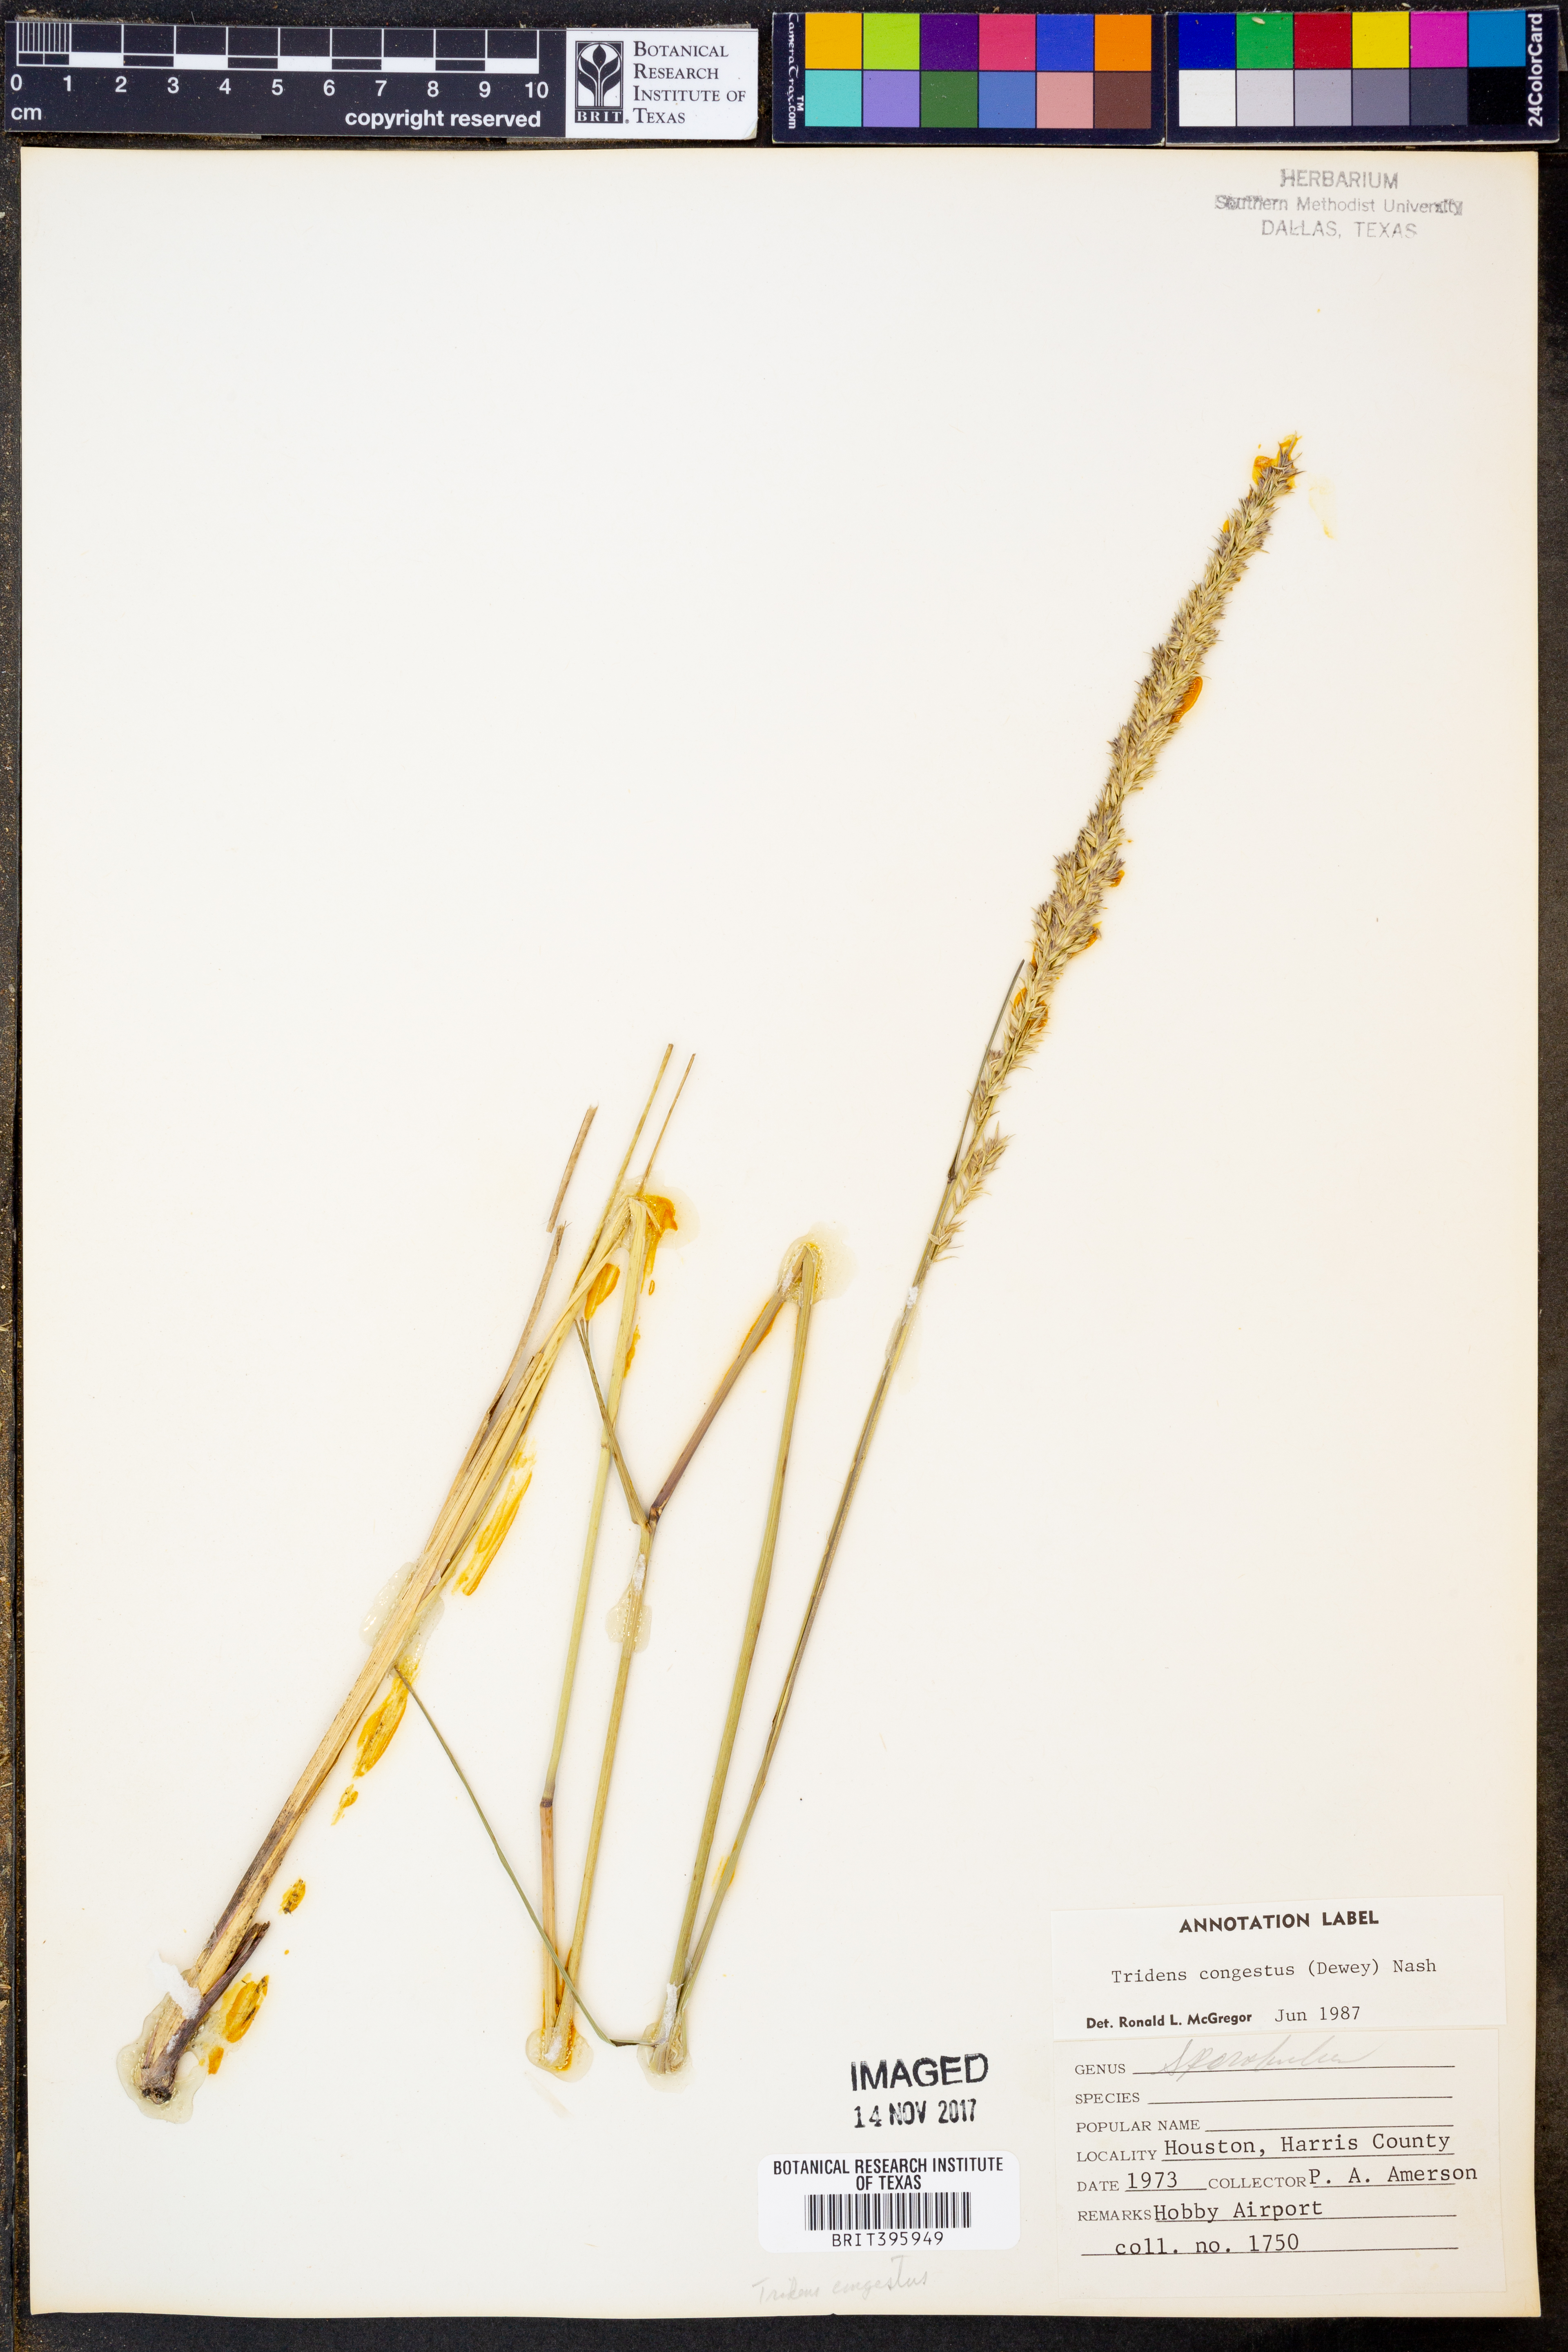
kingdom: Plantae
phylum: Tracheophyta
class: Liliopsida
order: Poales
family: Poaceae
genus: Tridens
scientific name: Tridens congestus
